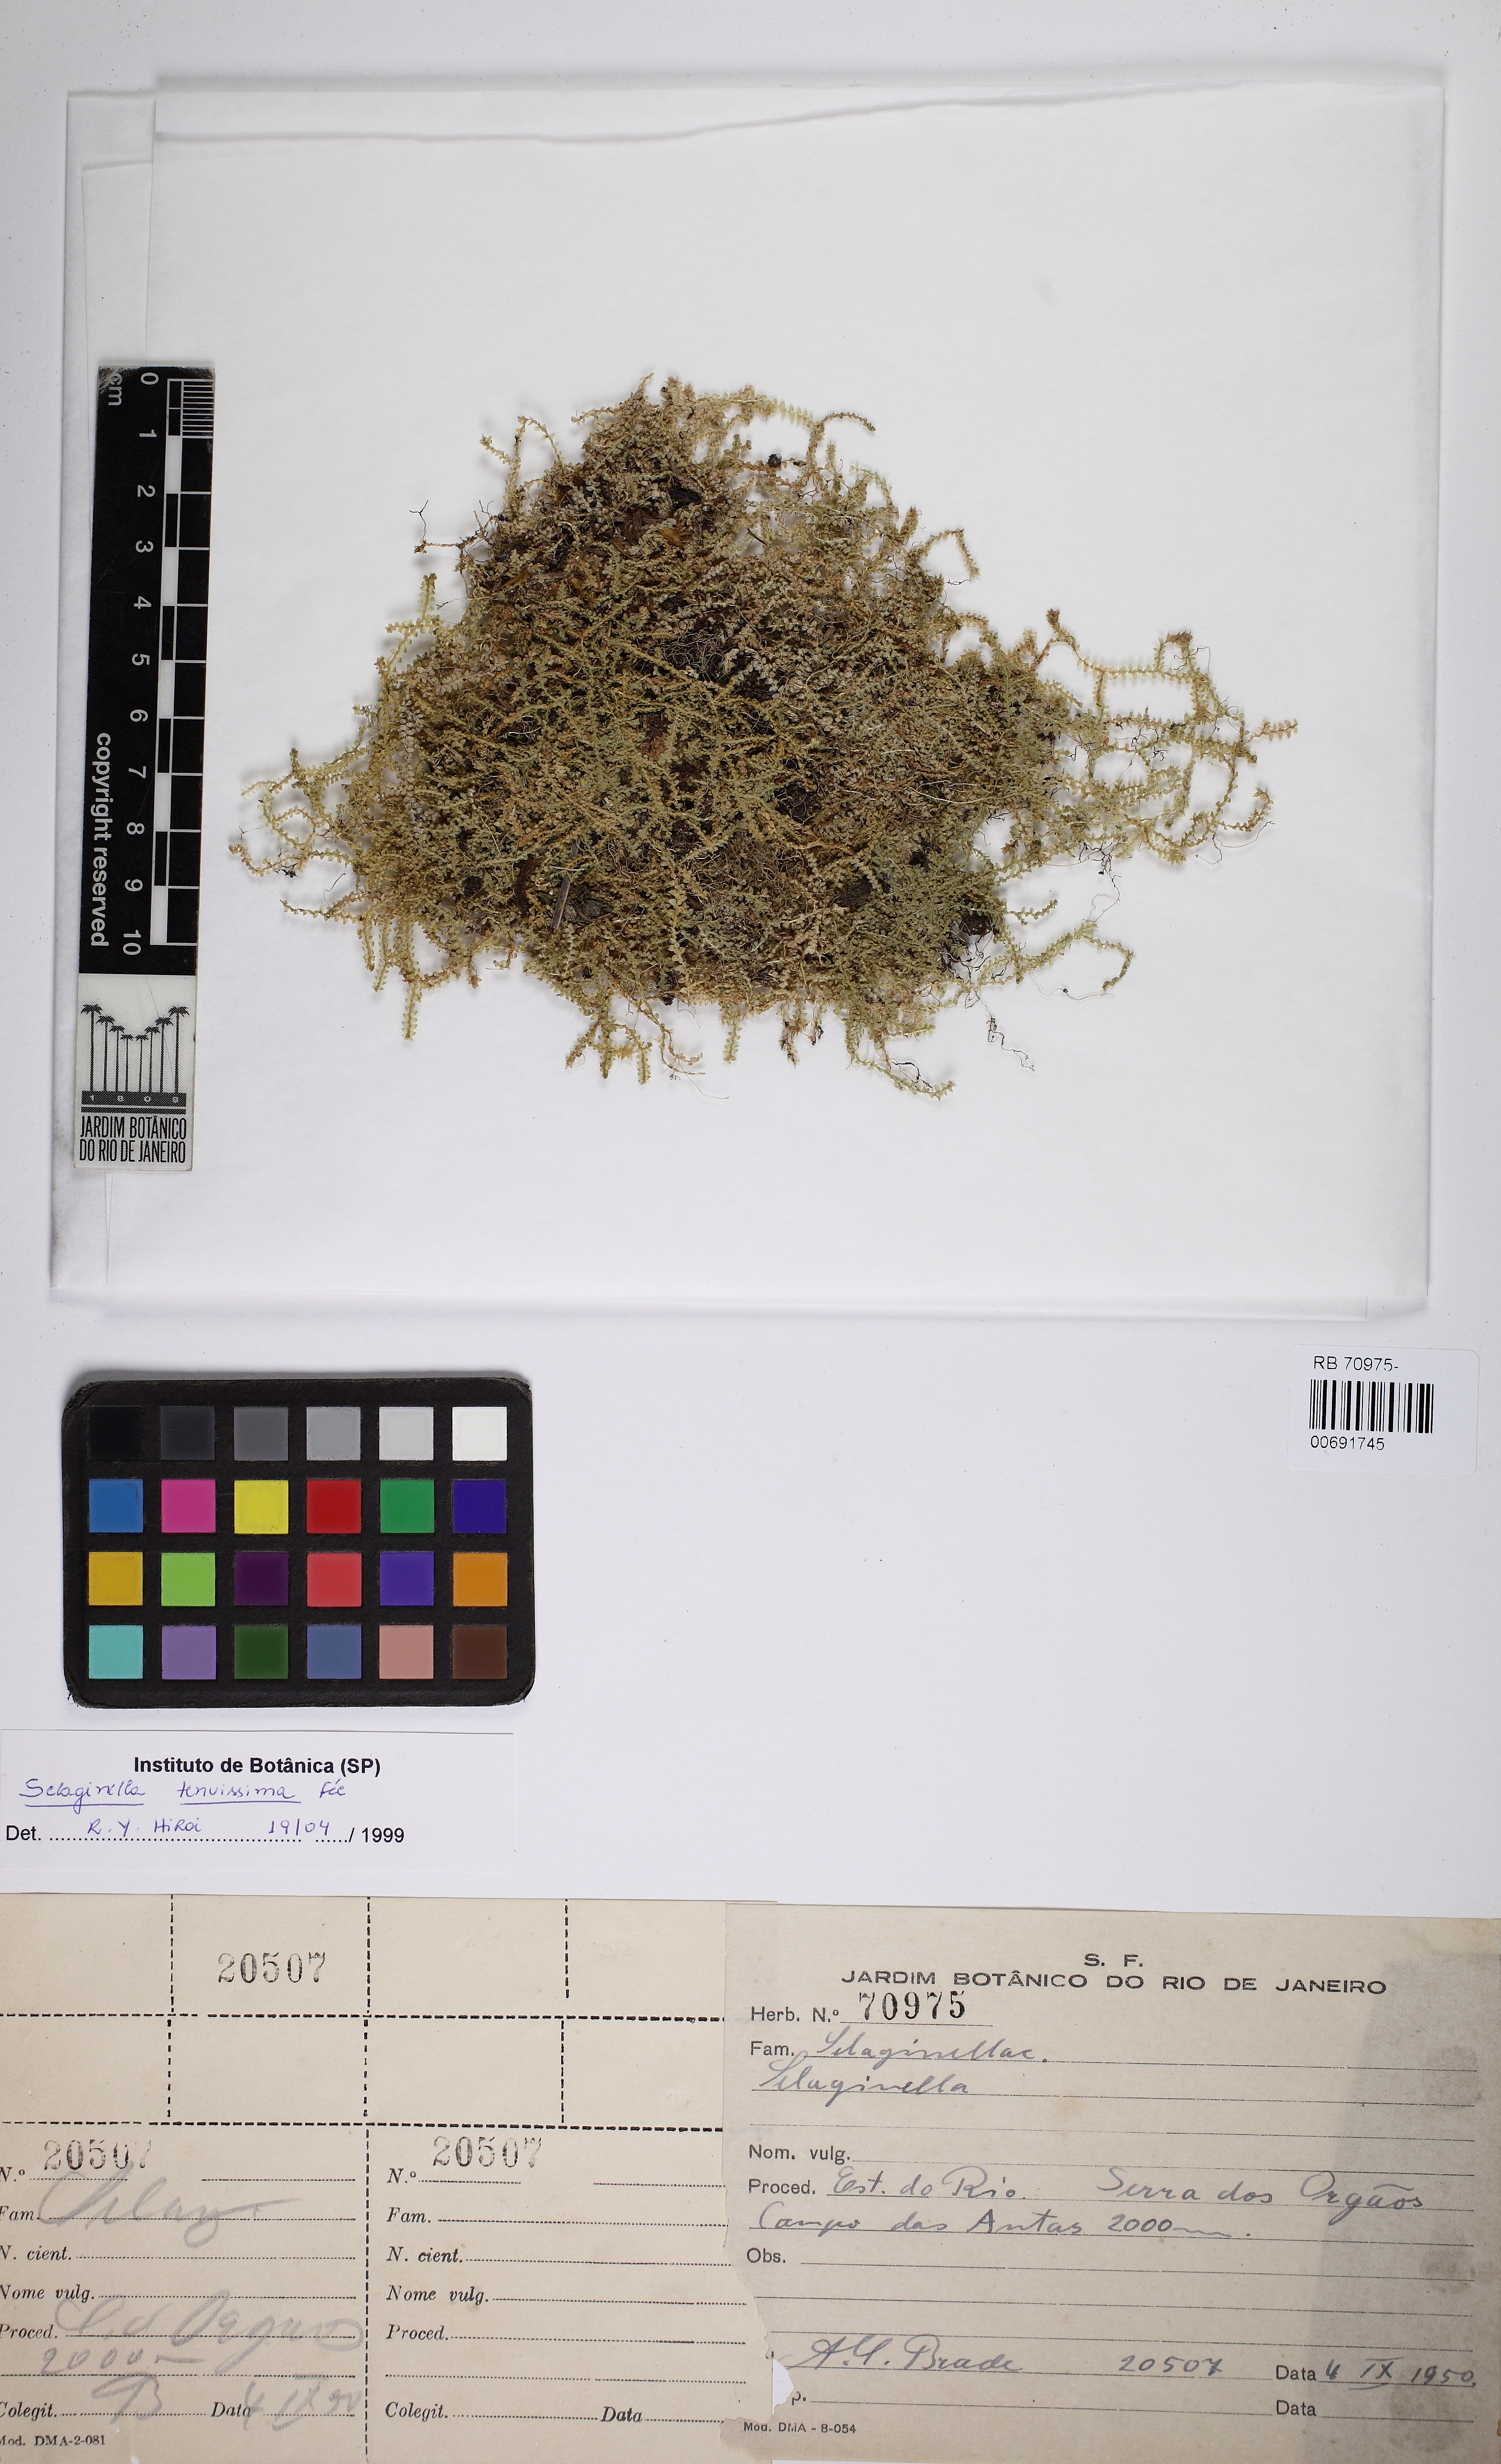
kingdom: Plantae
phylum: Tracheophyta
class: Lycopodiopsida
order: Selaginellales
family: Selaginellaceae
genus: Selaginella
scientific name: Selaginella tenuissima
